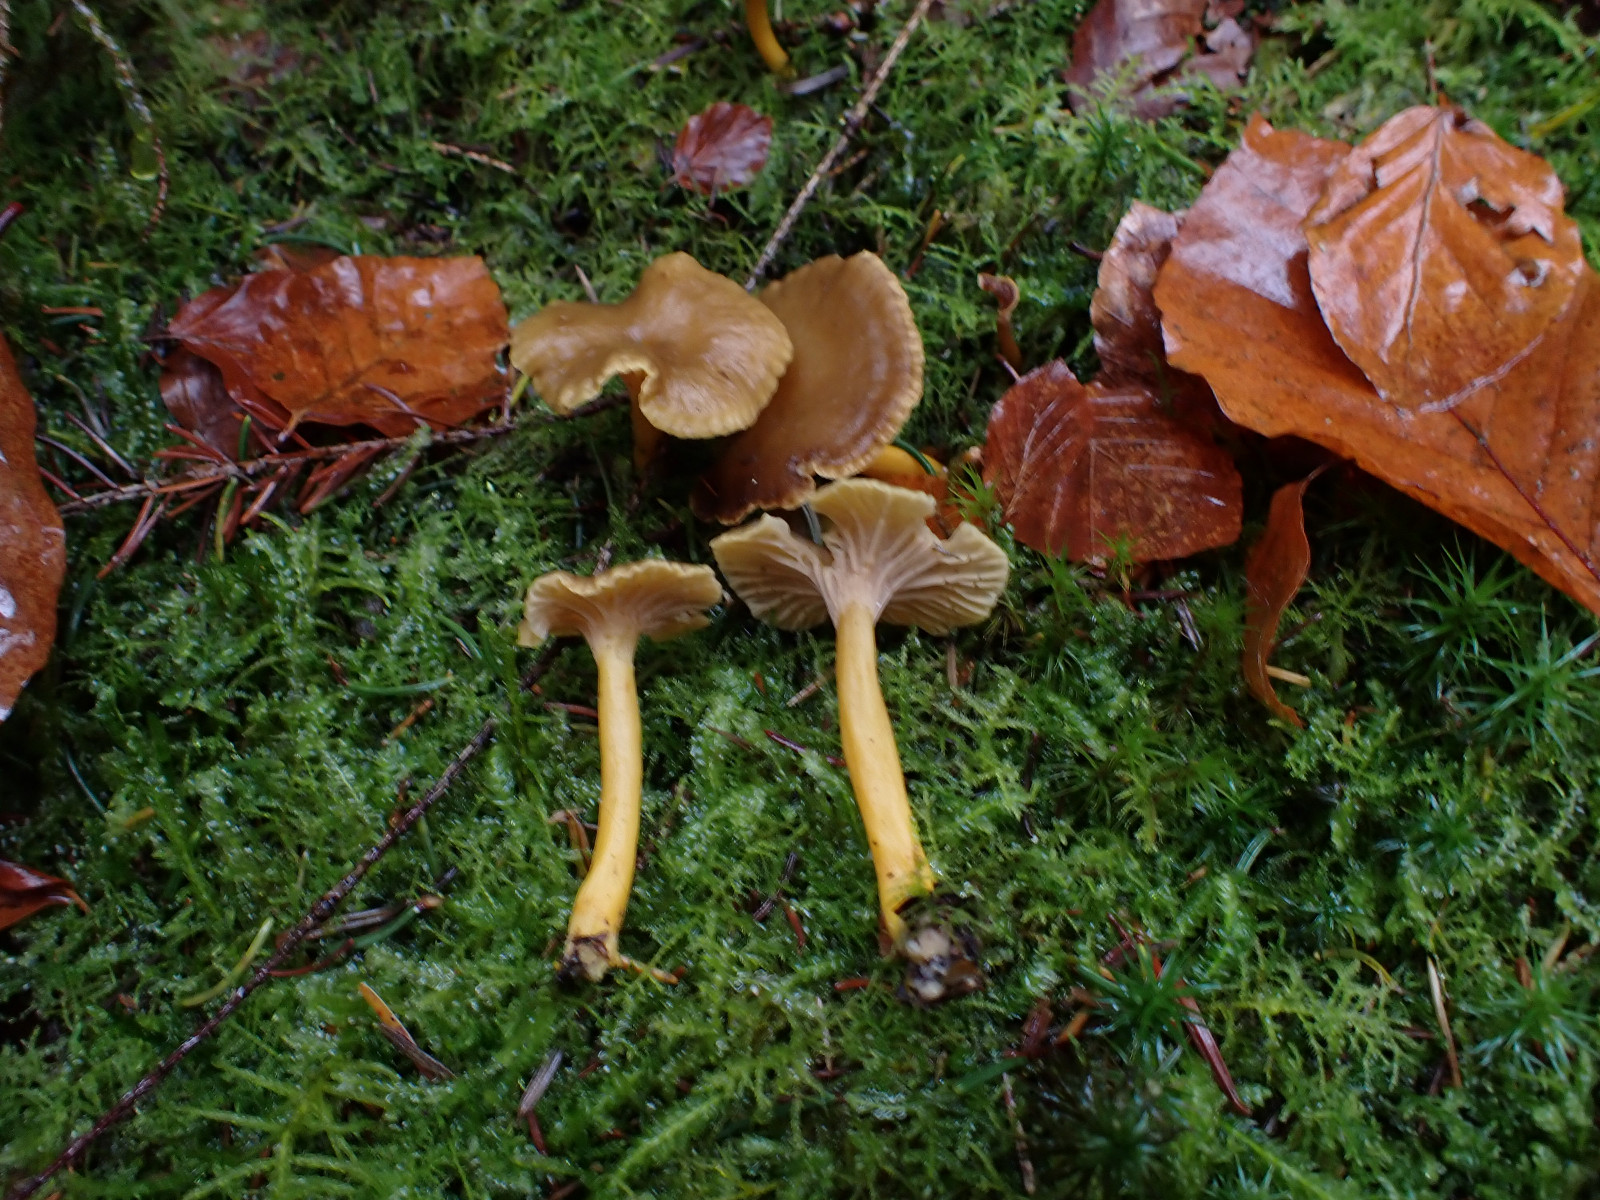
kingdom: Fungi
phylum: Basidiomycota
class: Agaricomycetes
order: Cantharellales
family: Hydnaceae
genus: Craterellus
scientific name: Craterellus tubaeformis
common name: tragt-kantarel
